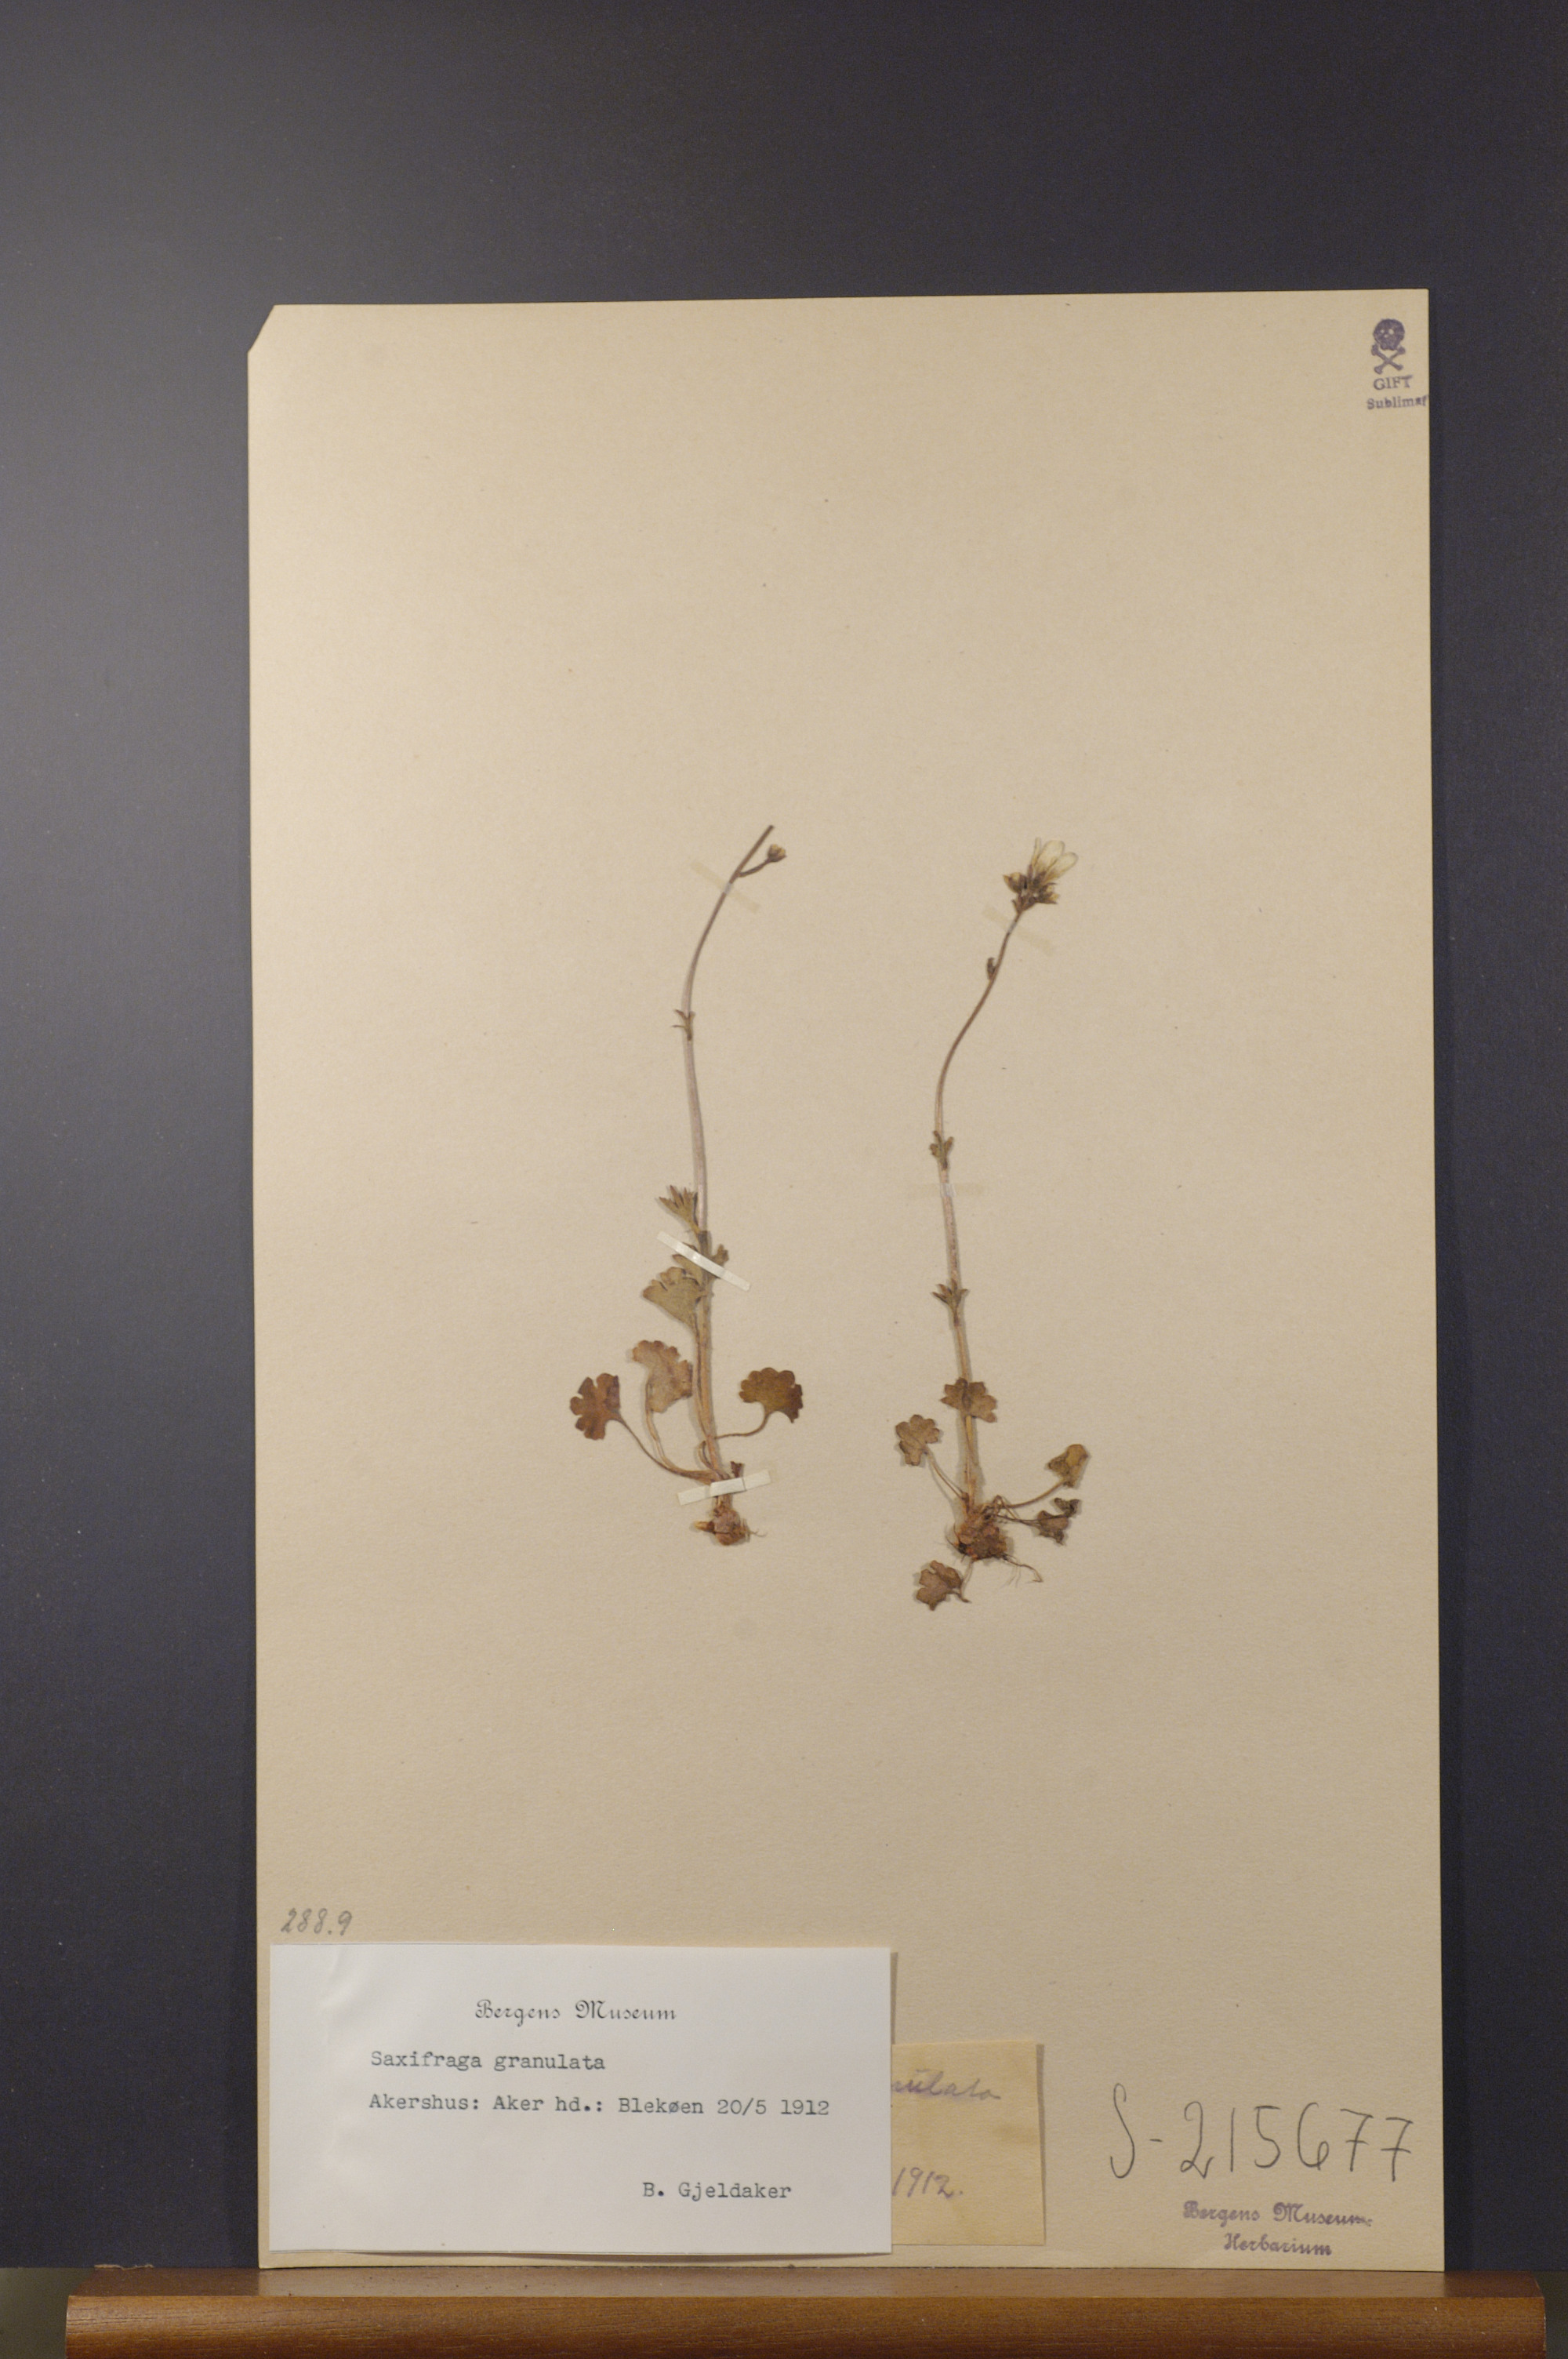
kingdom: Plantae
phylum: Tracheophyta
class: Magnoliopsida
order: Saxifragales
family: Saxifragaceae
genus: Saxifraga
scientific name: Saxifraga granulata
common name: Meadow saxifrage
